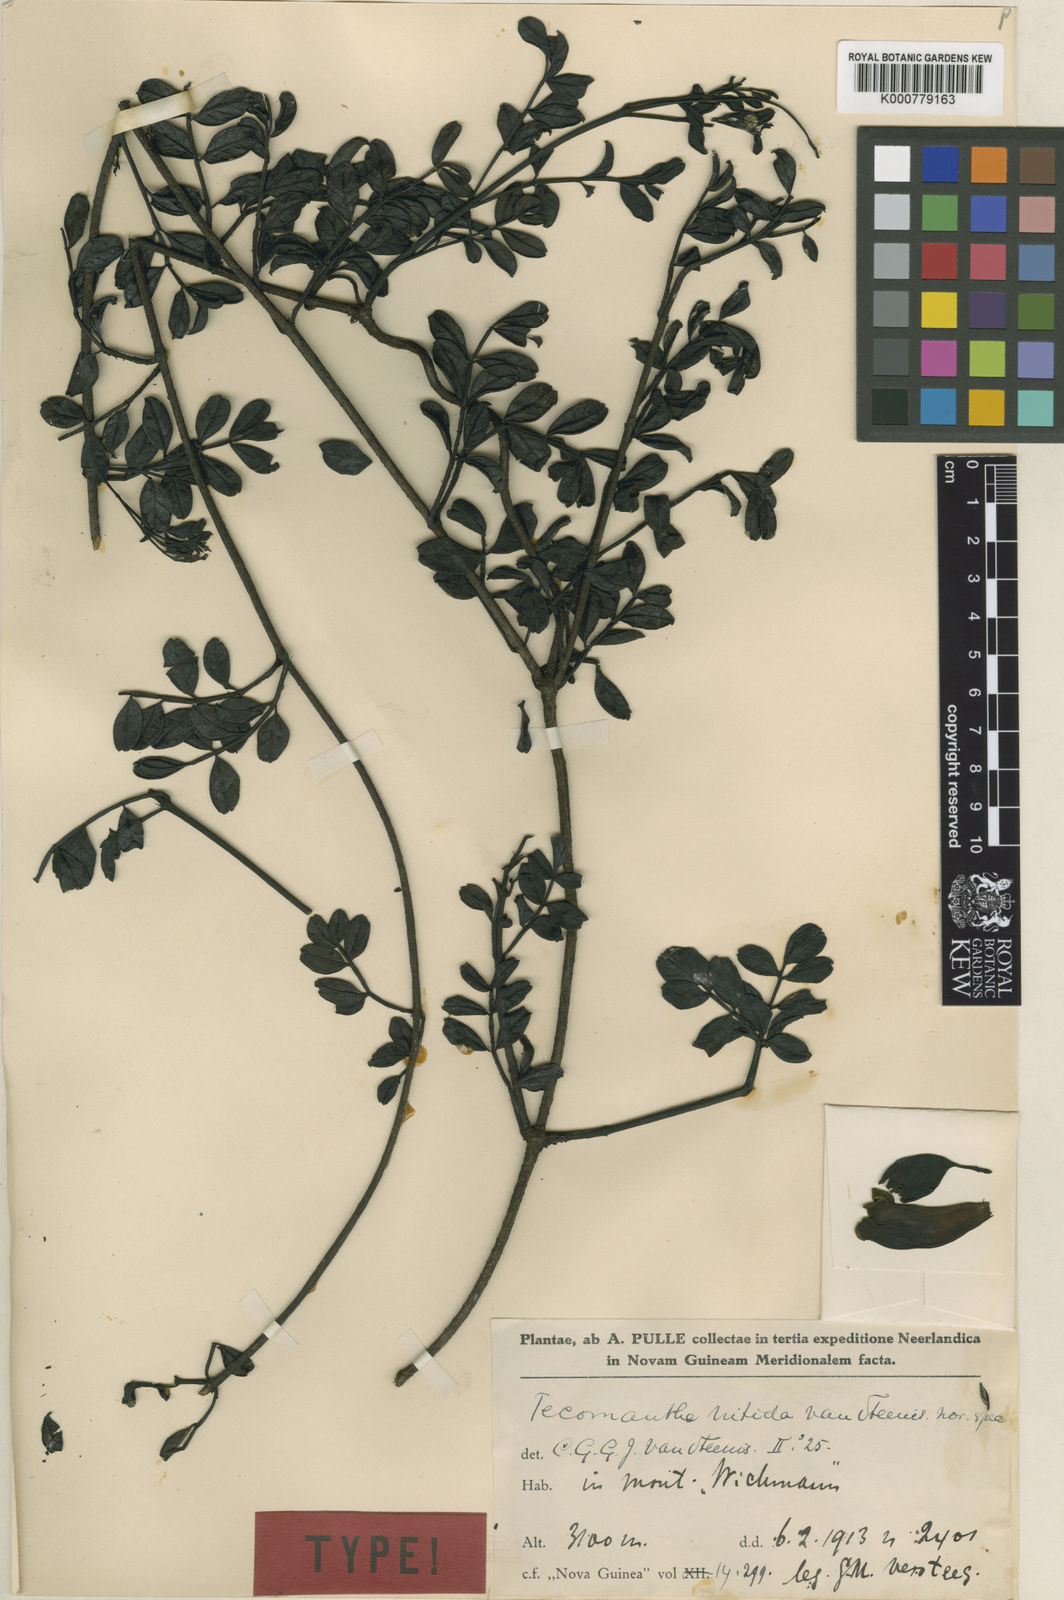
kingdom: Plantae
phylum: Tracheophyta
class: Magnoliopsida
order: Lamiales
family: Bignoniaceae
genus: Tecomanthe
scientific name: Tecomanthe volubilis
